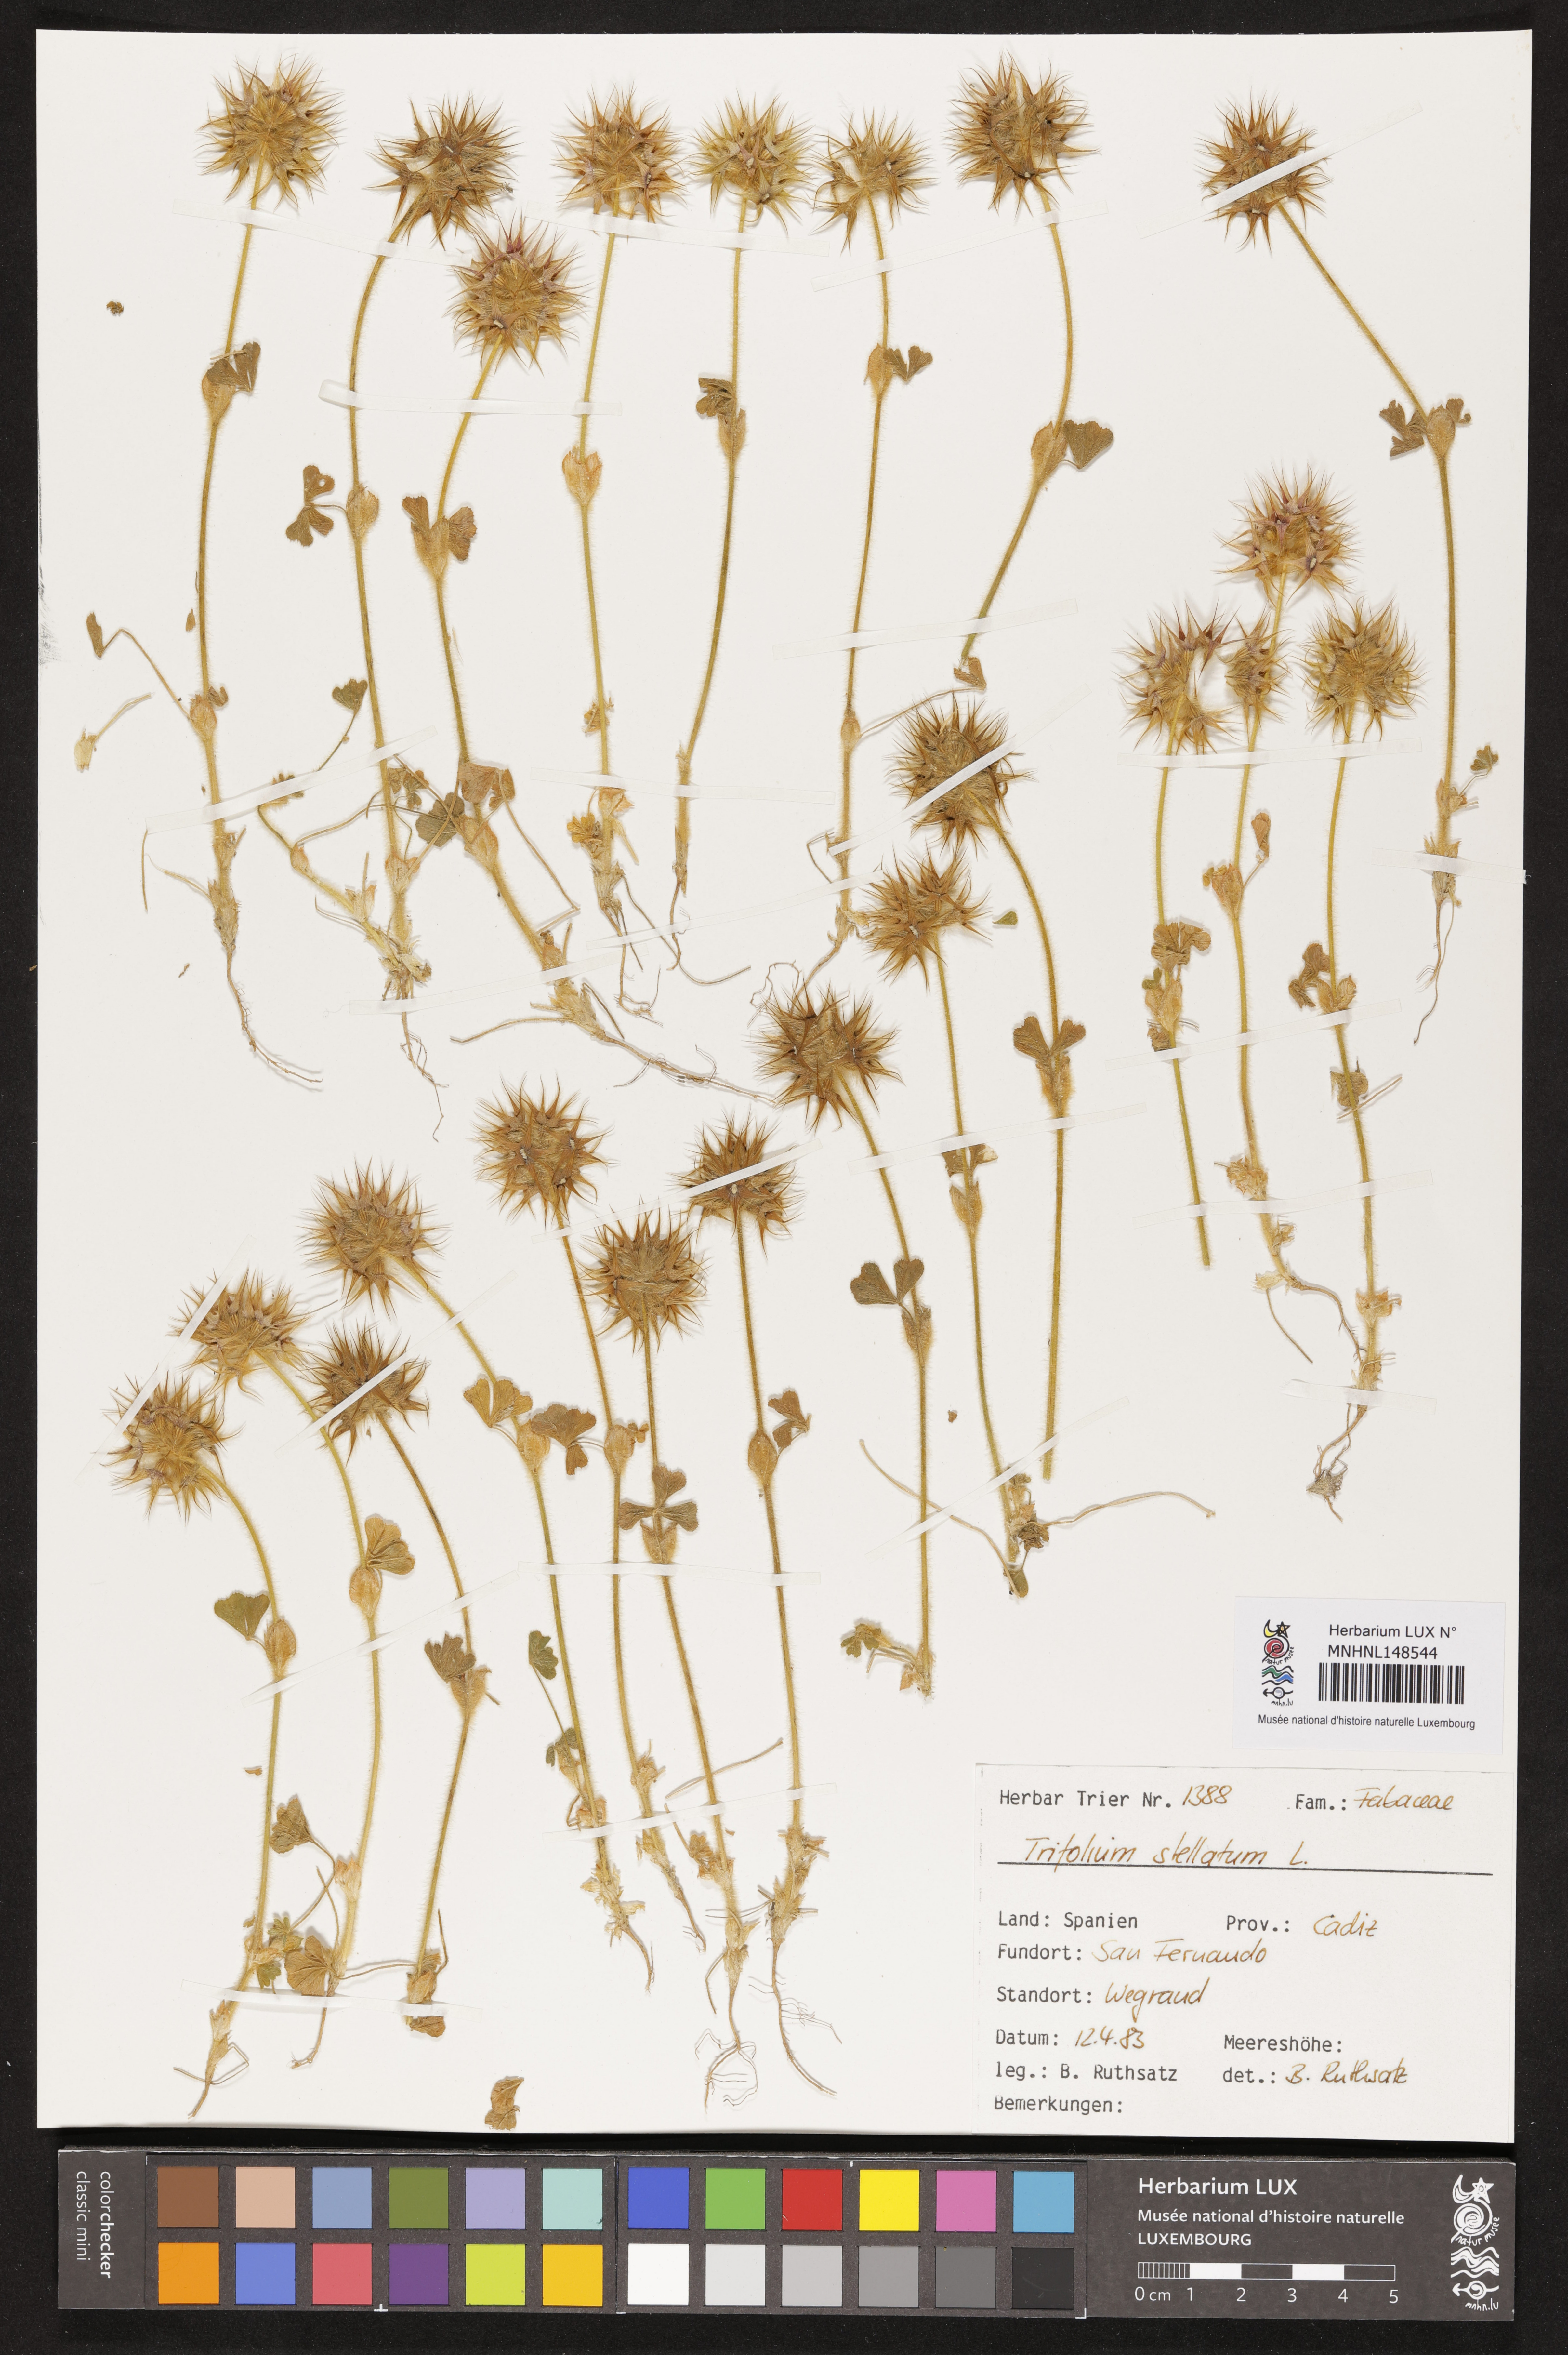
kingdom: Plantae
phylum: Tracheophyta
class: Magnoliopsida
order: Fabales
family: Fabaceae
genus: Trifolium
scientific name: Trifolium stellatum
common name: Starry clover
